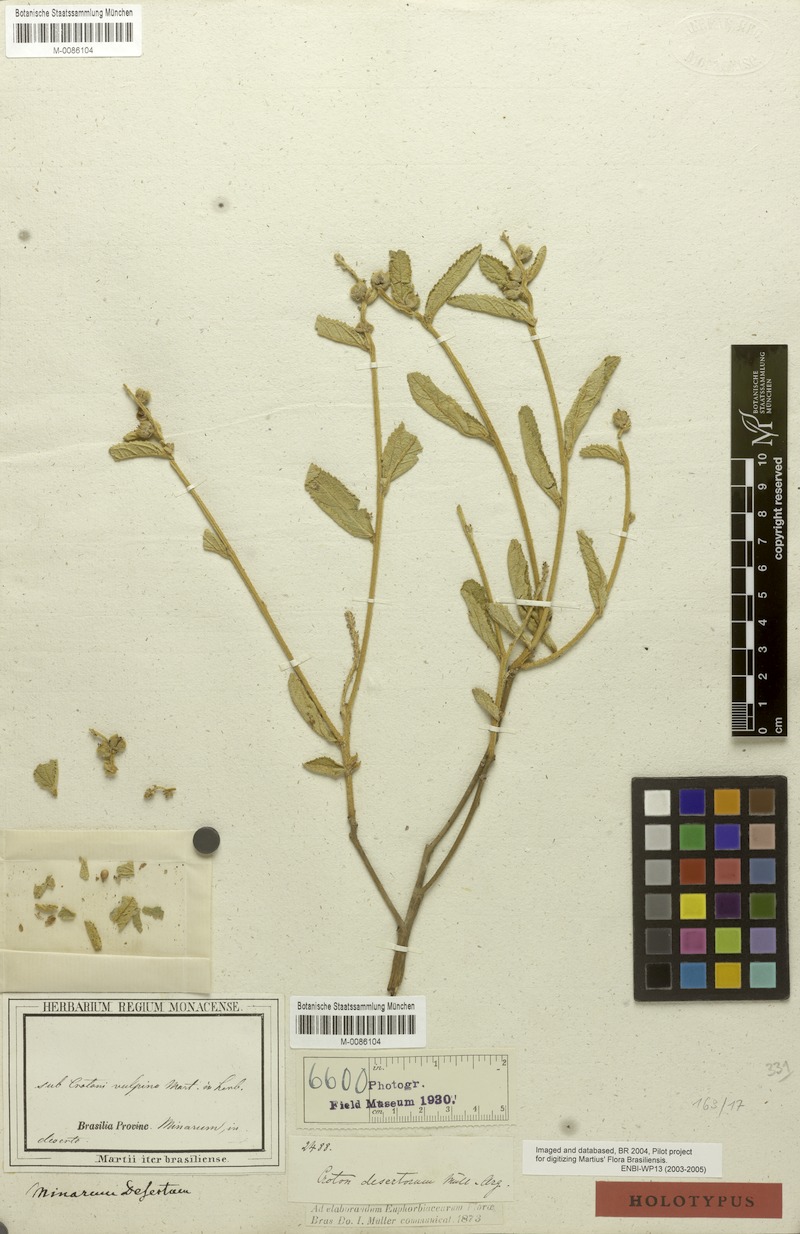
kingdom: Plantae
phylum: Tracheophyta
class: Magnoliopsida
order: Malpighiales
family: Euphorbiaceae
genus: Croton
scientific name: Croton desertorum
